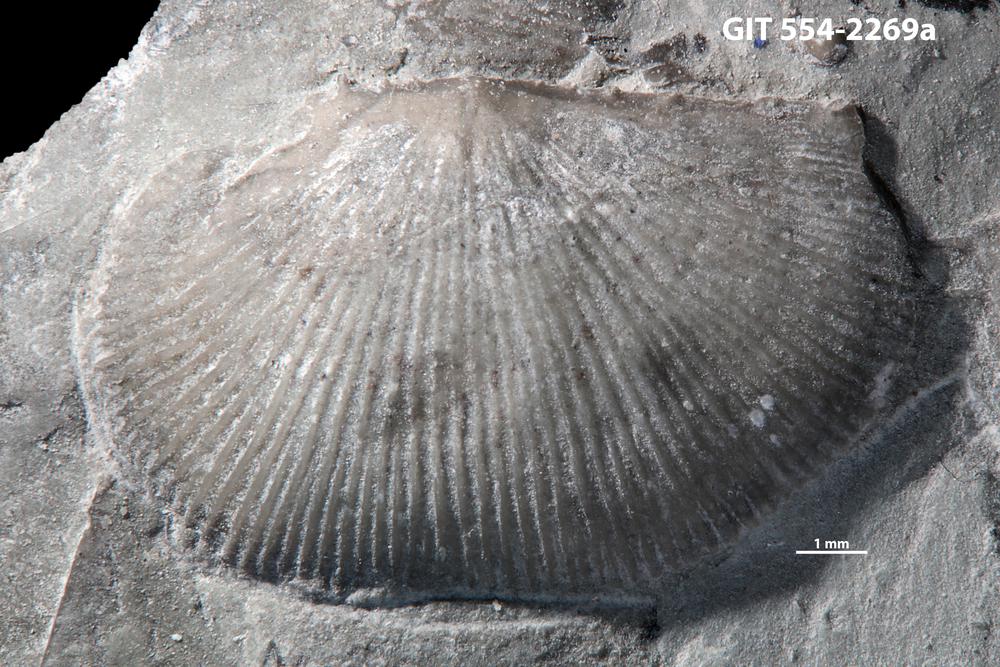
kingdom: Animalia
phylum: Brachiopoda
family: Strophochonetidae
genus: Protochonetes
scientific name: Protochonetes Orthis striatella
